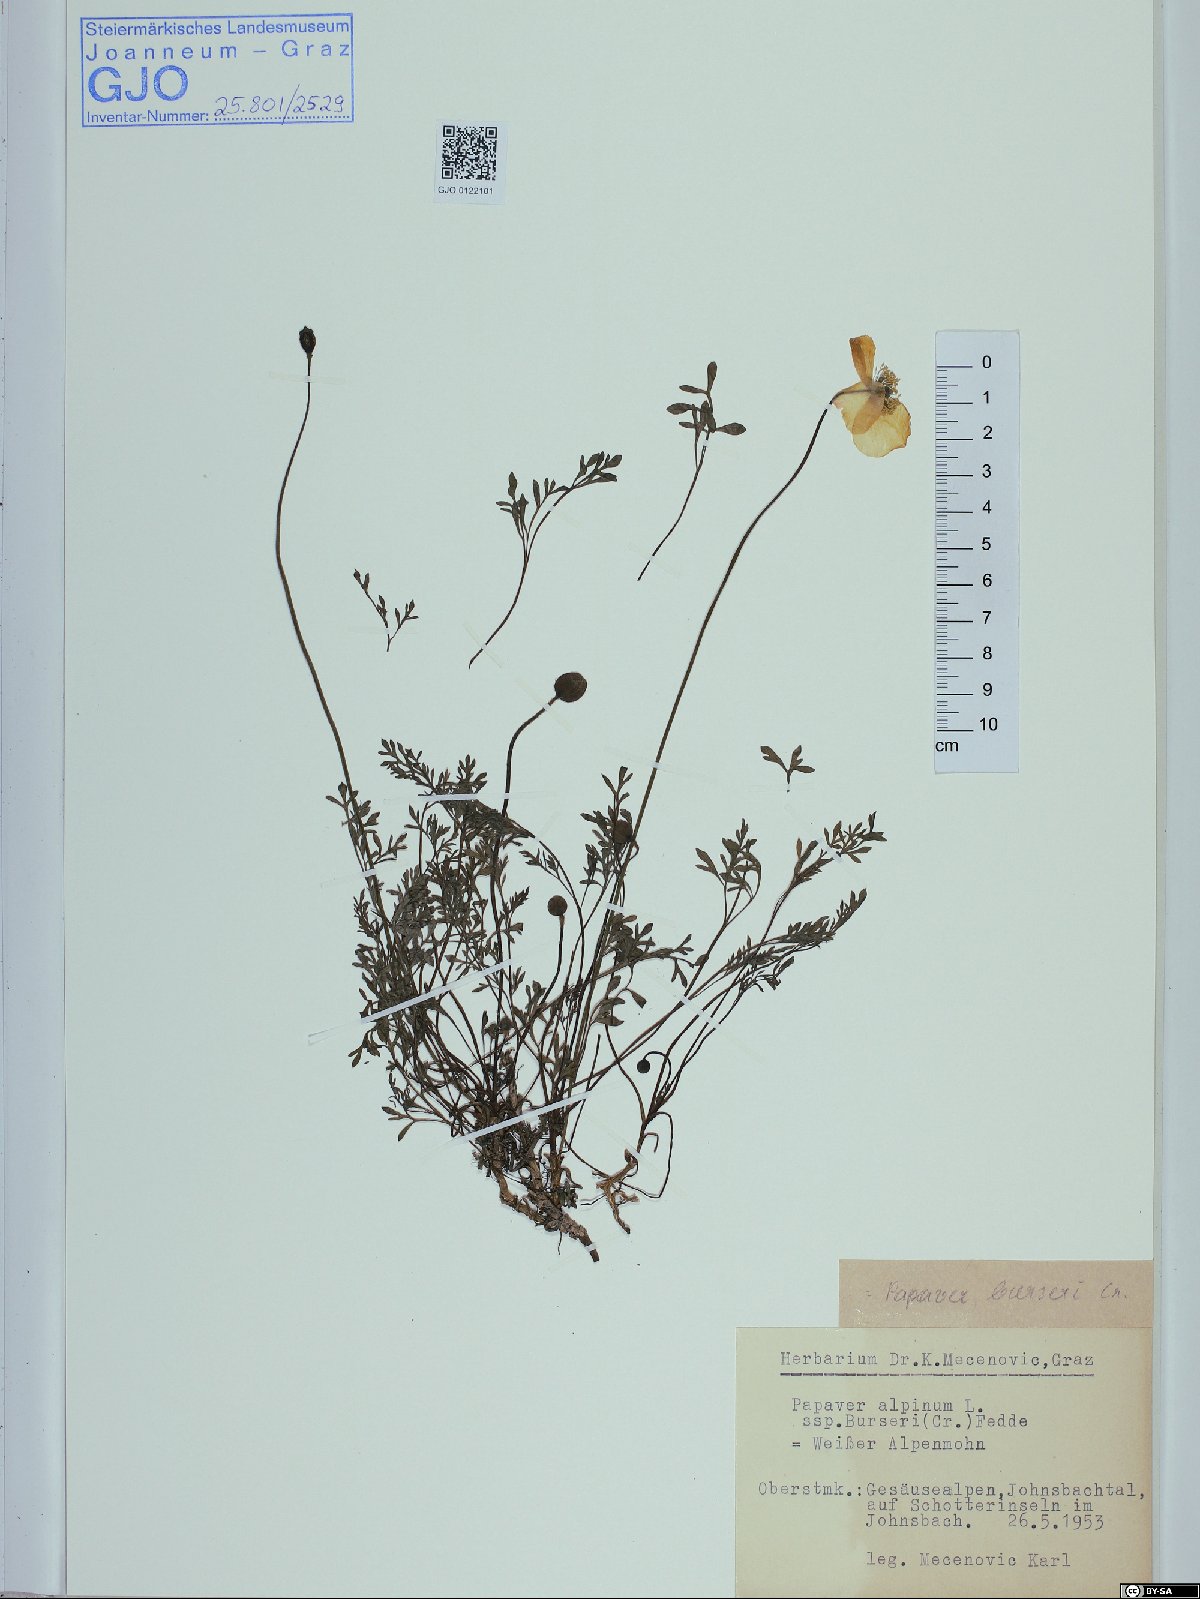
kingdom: Plantae
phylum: Tracheophyta
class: Magnoliopsida
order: Ranunculales
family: Papaveraceae
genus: Papaver
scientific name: Papaver alpinum
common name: Austrian poppy
